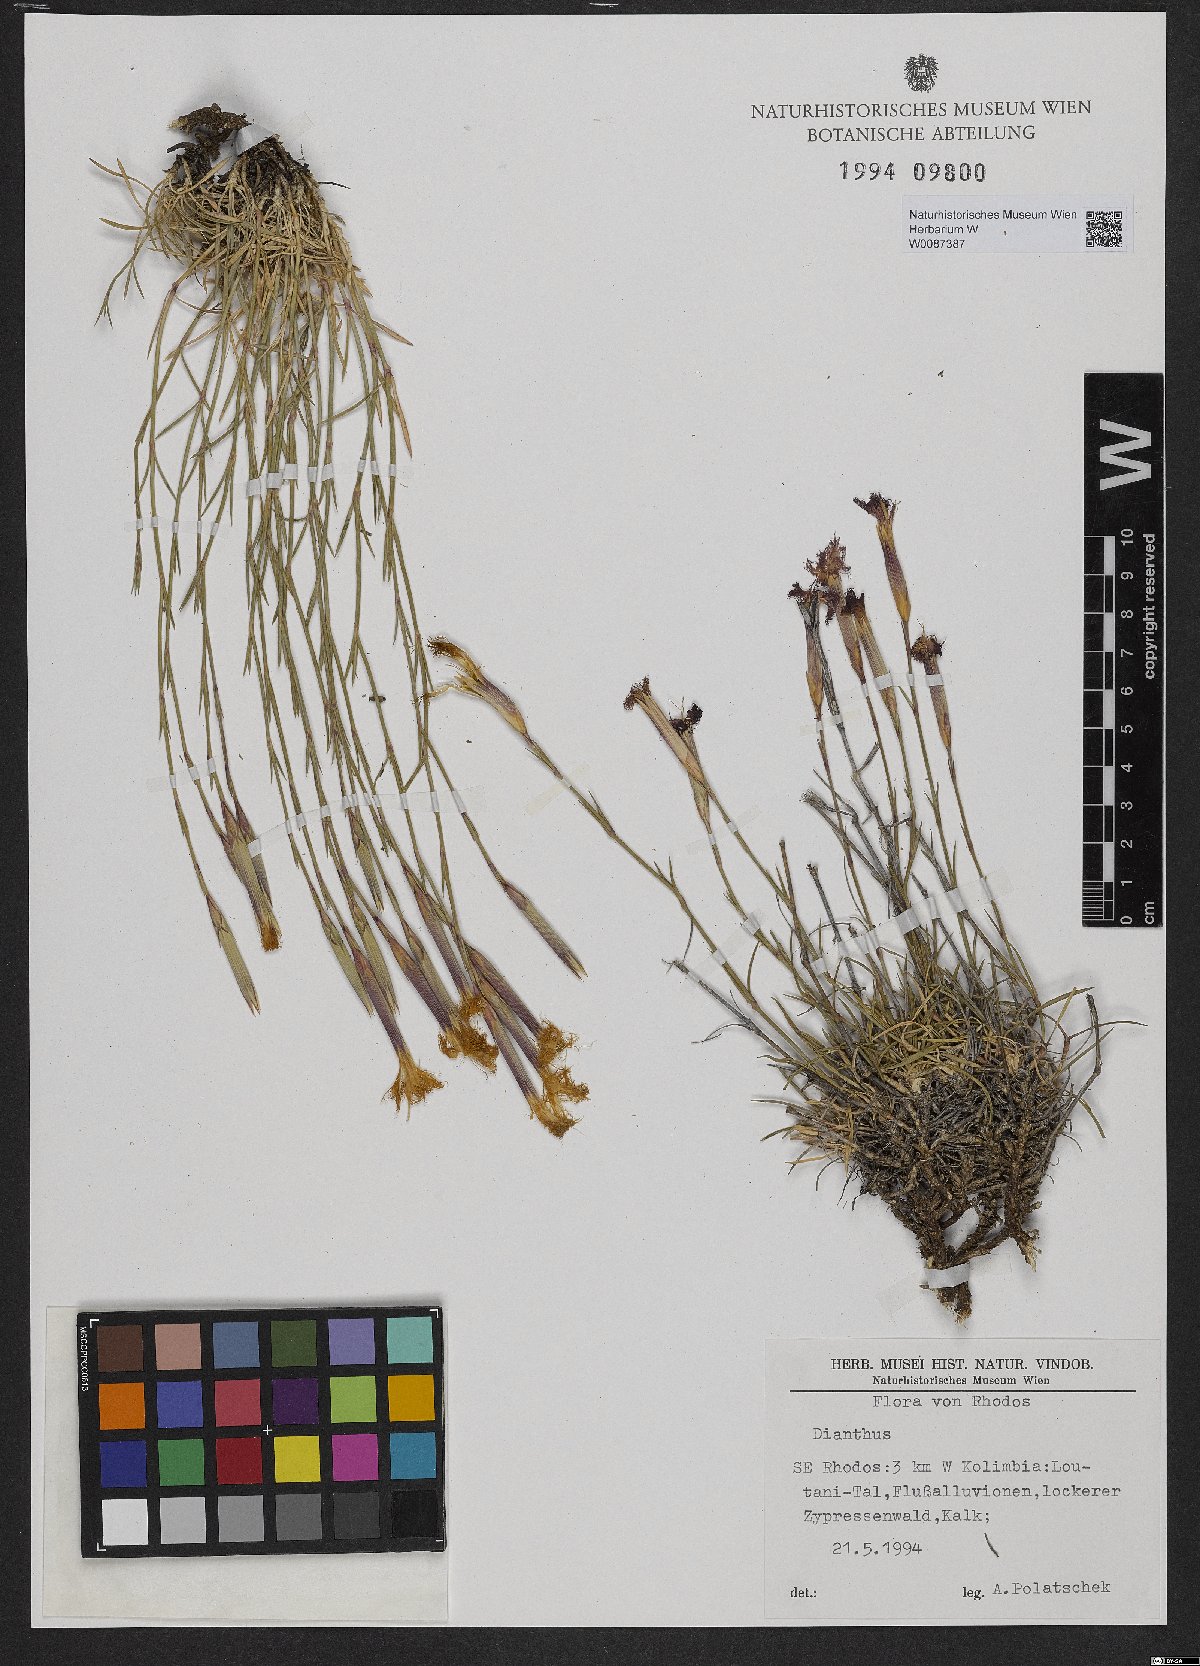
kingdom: Plantae
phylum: Tracheophyta
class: Magnoliopsida
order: Caryophyllales
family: Caryophyllaceae
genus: Dianthus
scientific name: Dianthus
